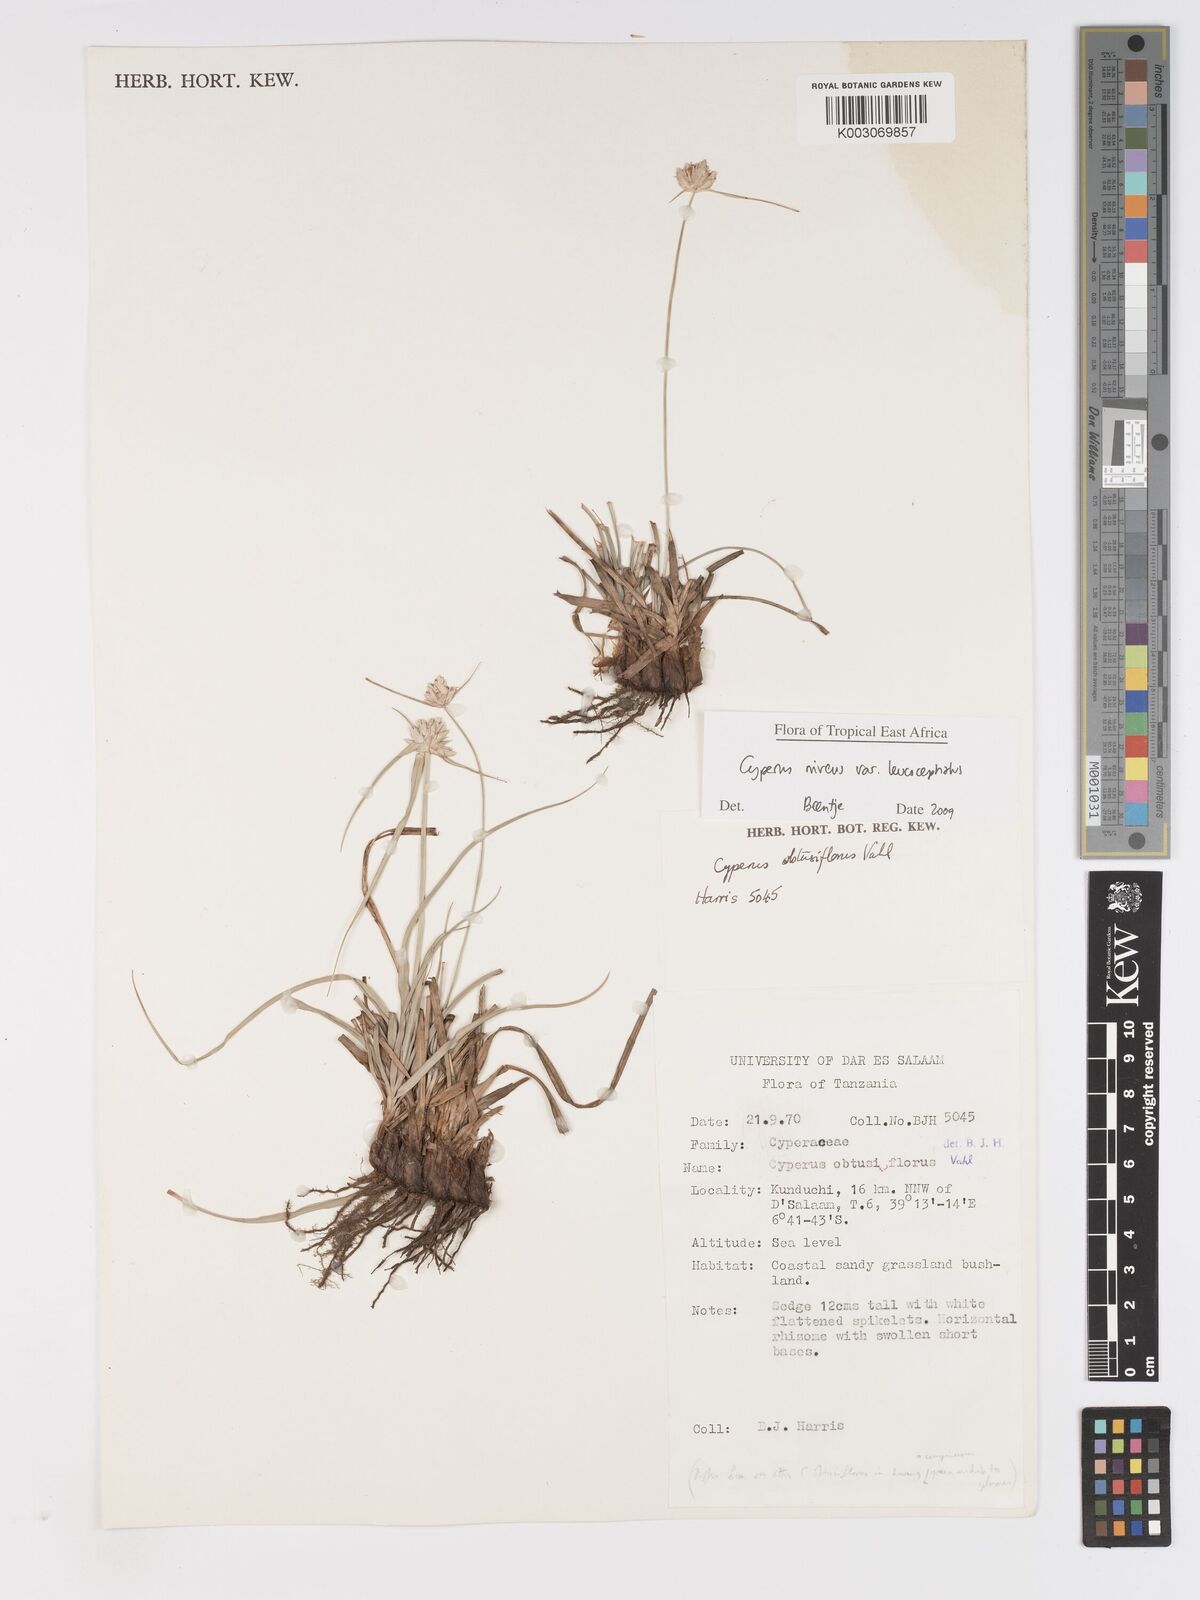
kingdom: Plantae
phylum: Tracheophyta
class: Liliopsida
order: Poales
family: Cyperaceae
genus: Cyperus
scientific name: Cyperus niveus
